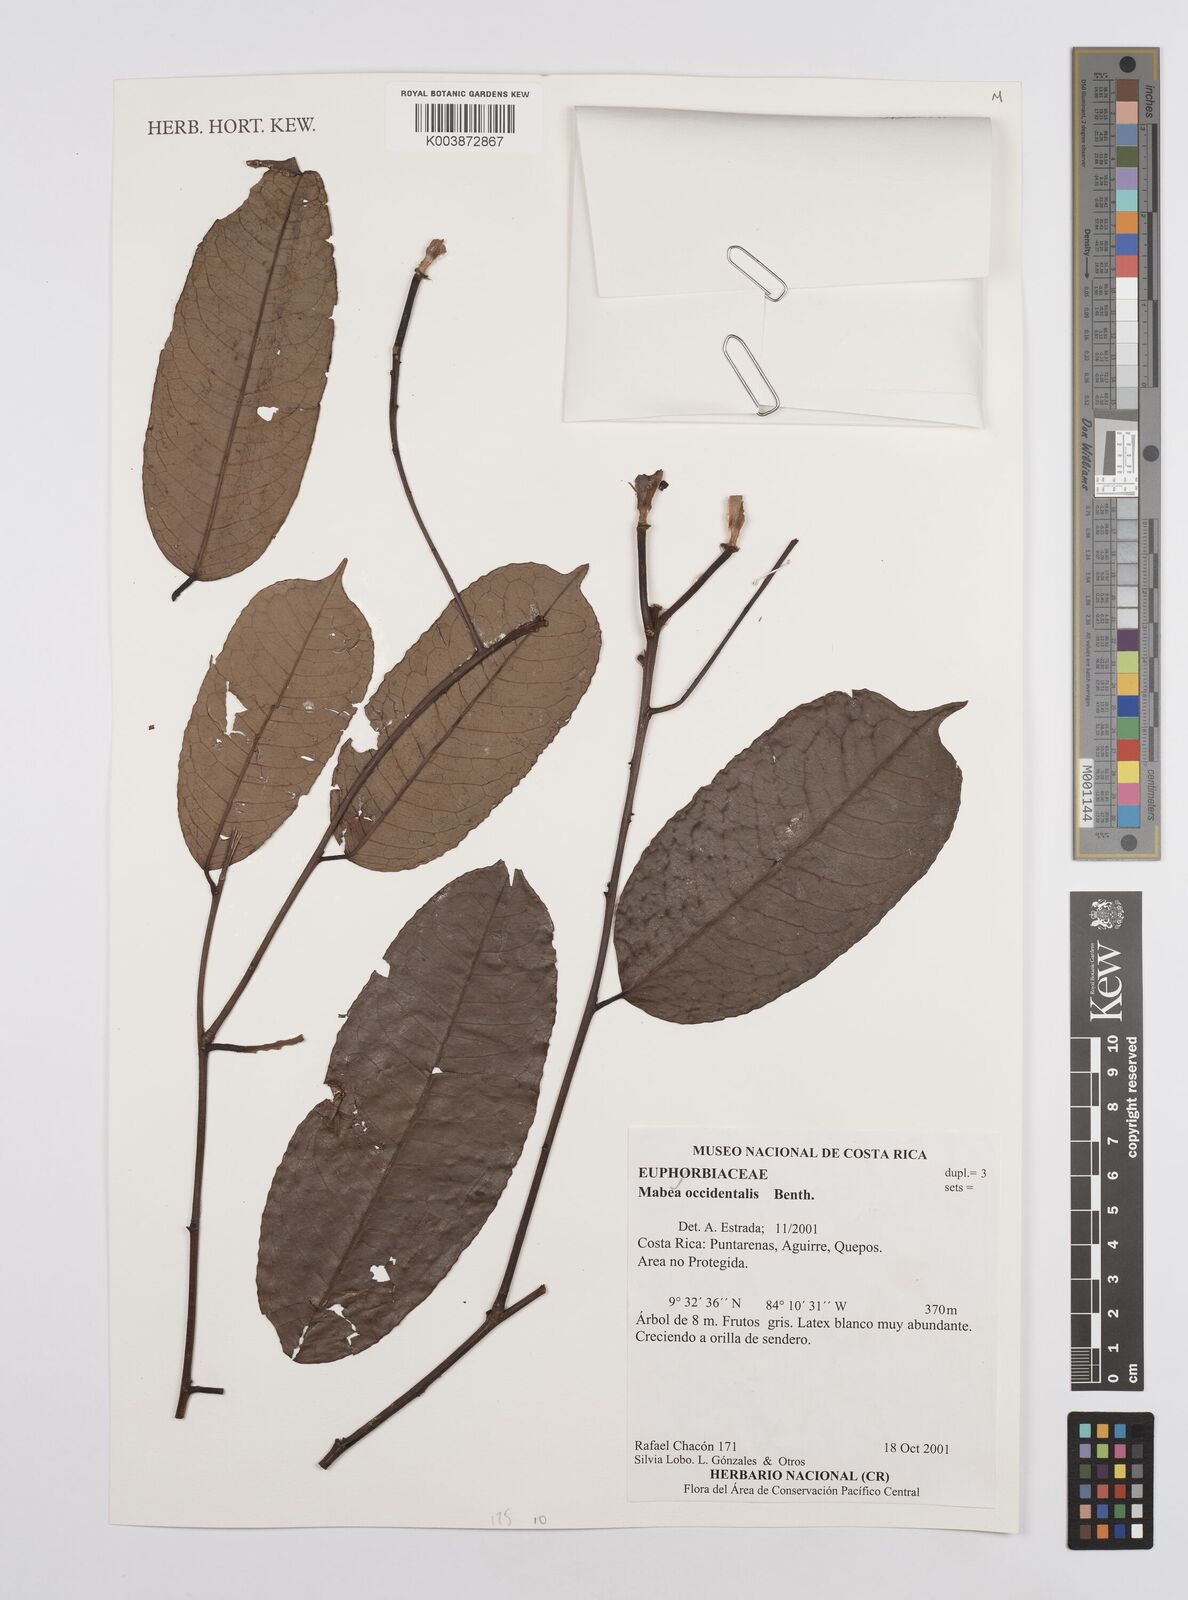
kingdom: Plantae
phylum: Tracheophyta
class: Magnoliopsida
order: Malpighiales
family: Euphorbiaceae
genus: Mabea
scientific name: Mabea occidentalis
